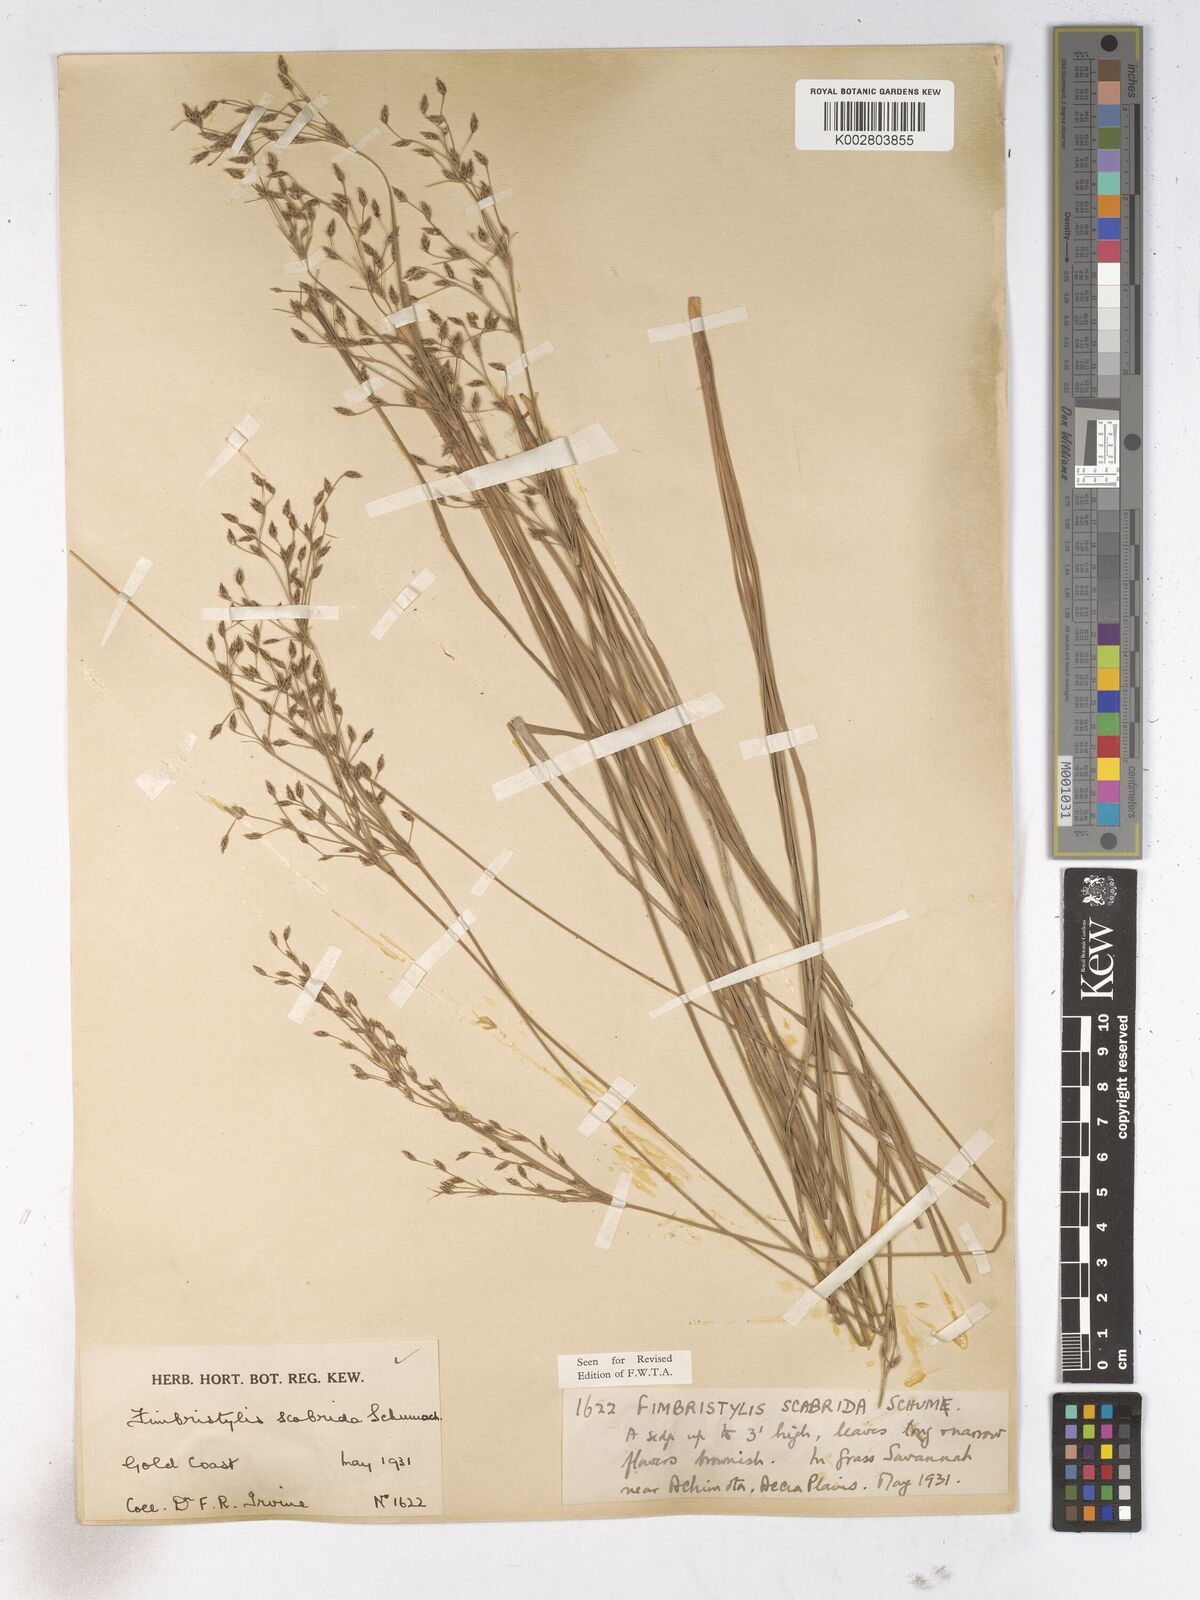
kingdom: Plantae
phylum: Tracheophyta
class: Liliopsida
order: Poales
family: Cyperaceae
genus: Fimbristylis
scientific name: Fimbristylis scabrida
